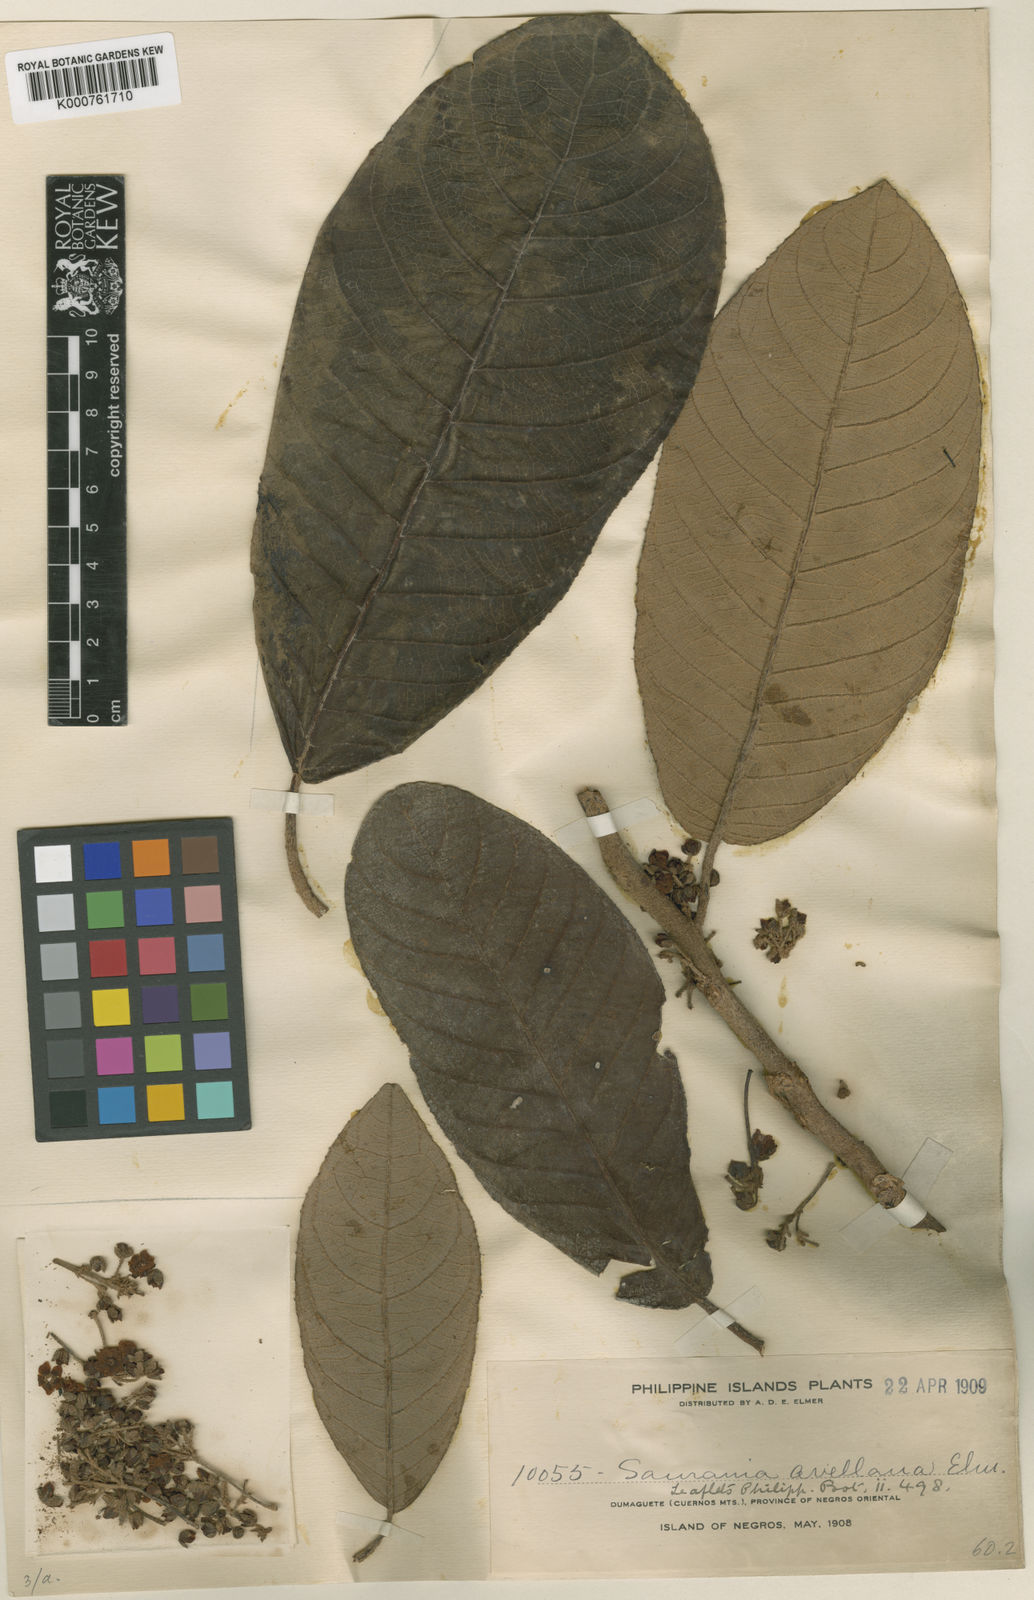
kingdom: Plantae
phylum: Tracheophyta
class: Magnoliopsida
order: Ericales
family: Actinidiaceae
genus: Saurauia
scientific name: Saurauia avellana
